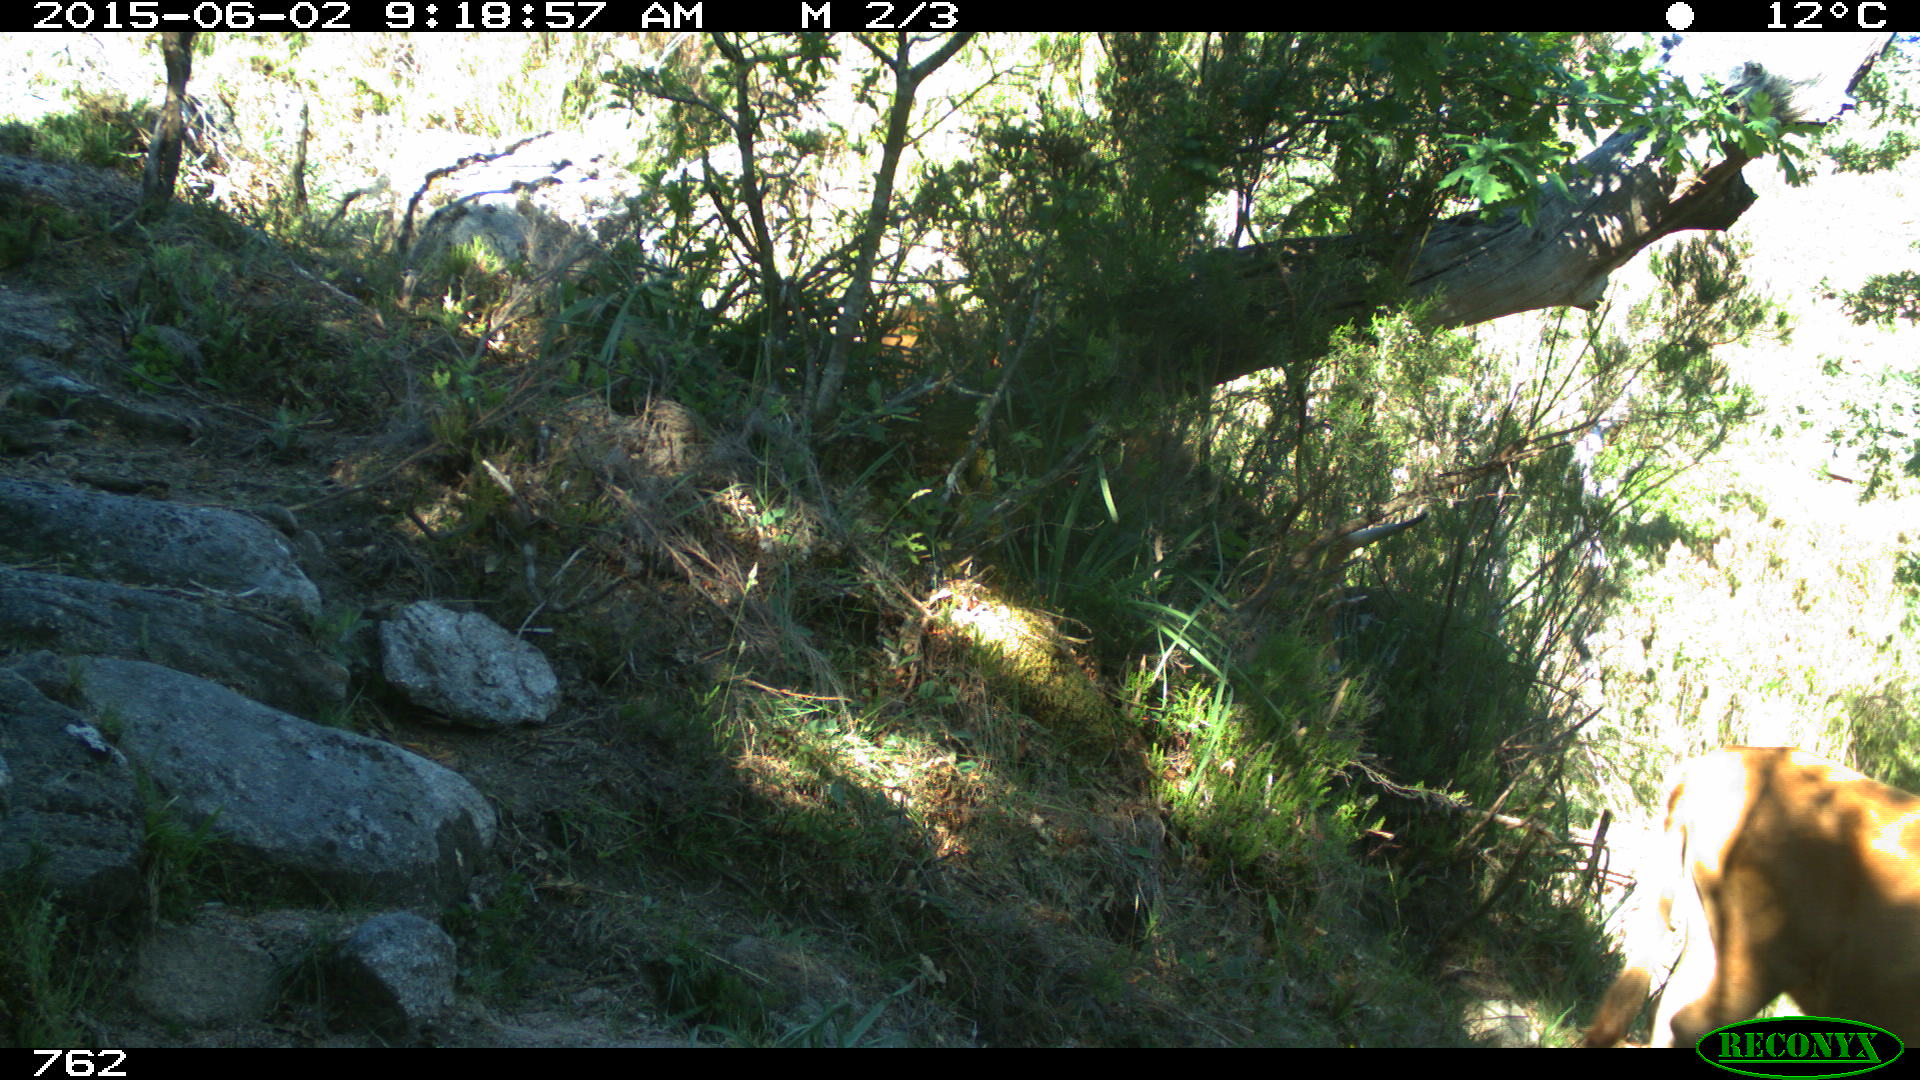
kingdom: Animalia
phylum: Chordata
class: Mammalia
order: Artiodactyla
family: Bovidae
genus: Bos
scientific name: Bos taurus
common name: Domesticated cattle
